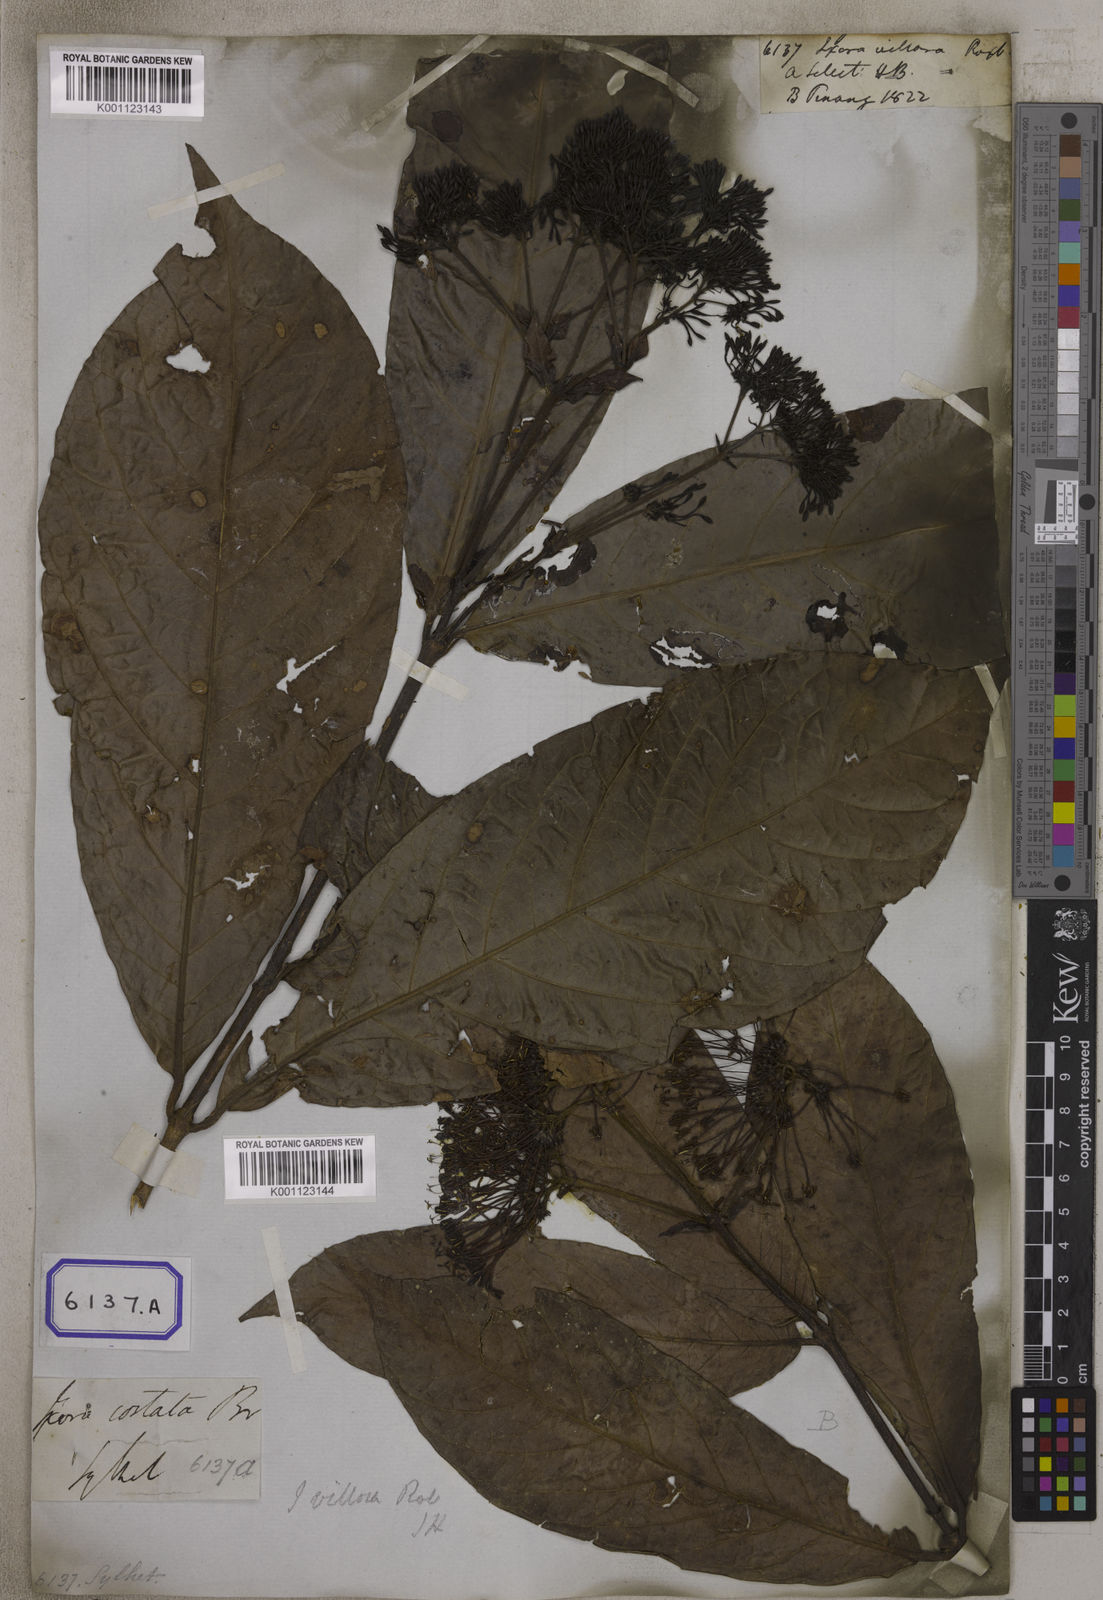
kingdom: Plantae
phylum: Tracheophyta
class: Magnoliopsida
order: Gentianales
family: Rubiaceae
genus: Ixora
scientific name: Ixora roxburghii
